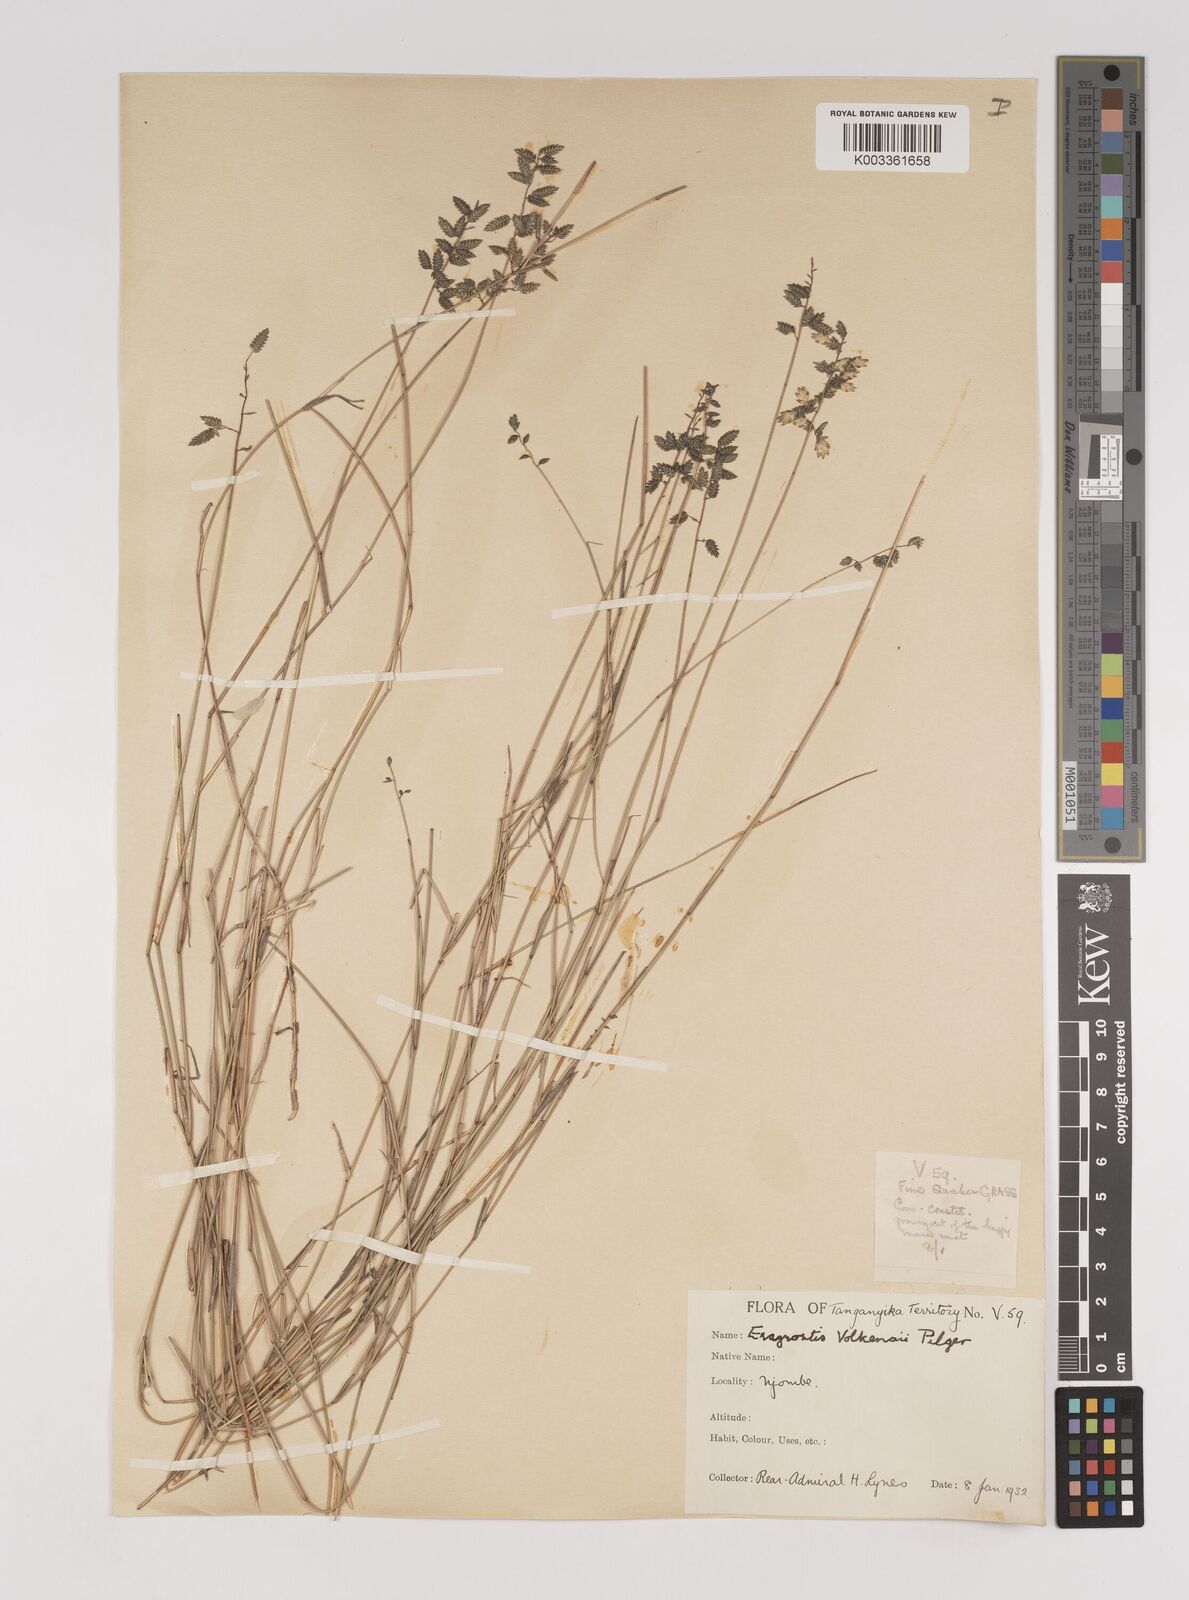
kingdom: Plantae
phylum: Tracheophyta
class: Liliopsida
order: Poales
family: Poaceae
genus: Eragrostis
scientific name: Eragrostis volkensii
